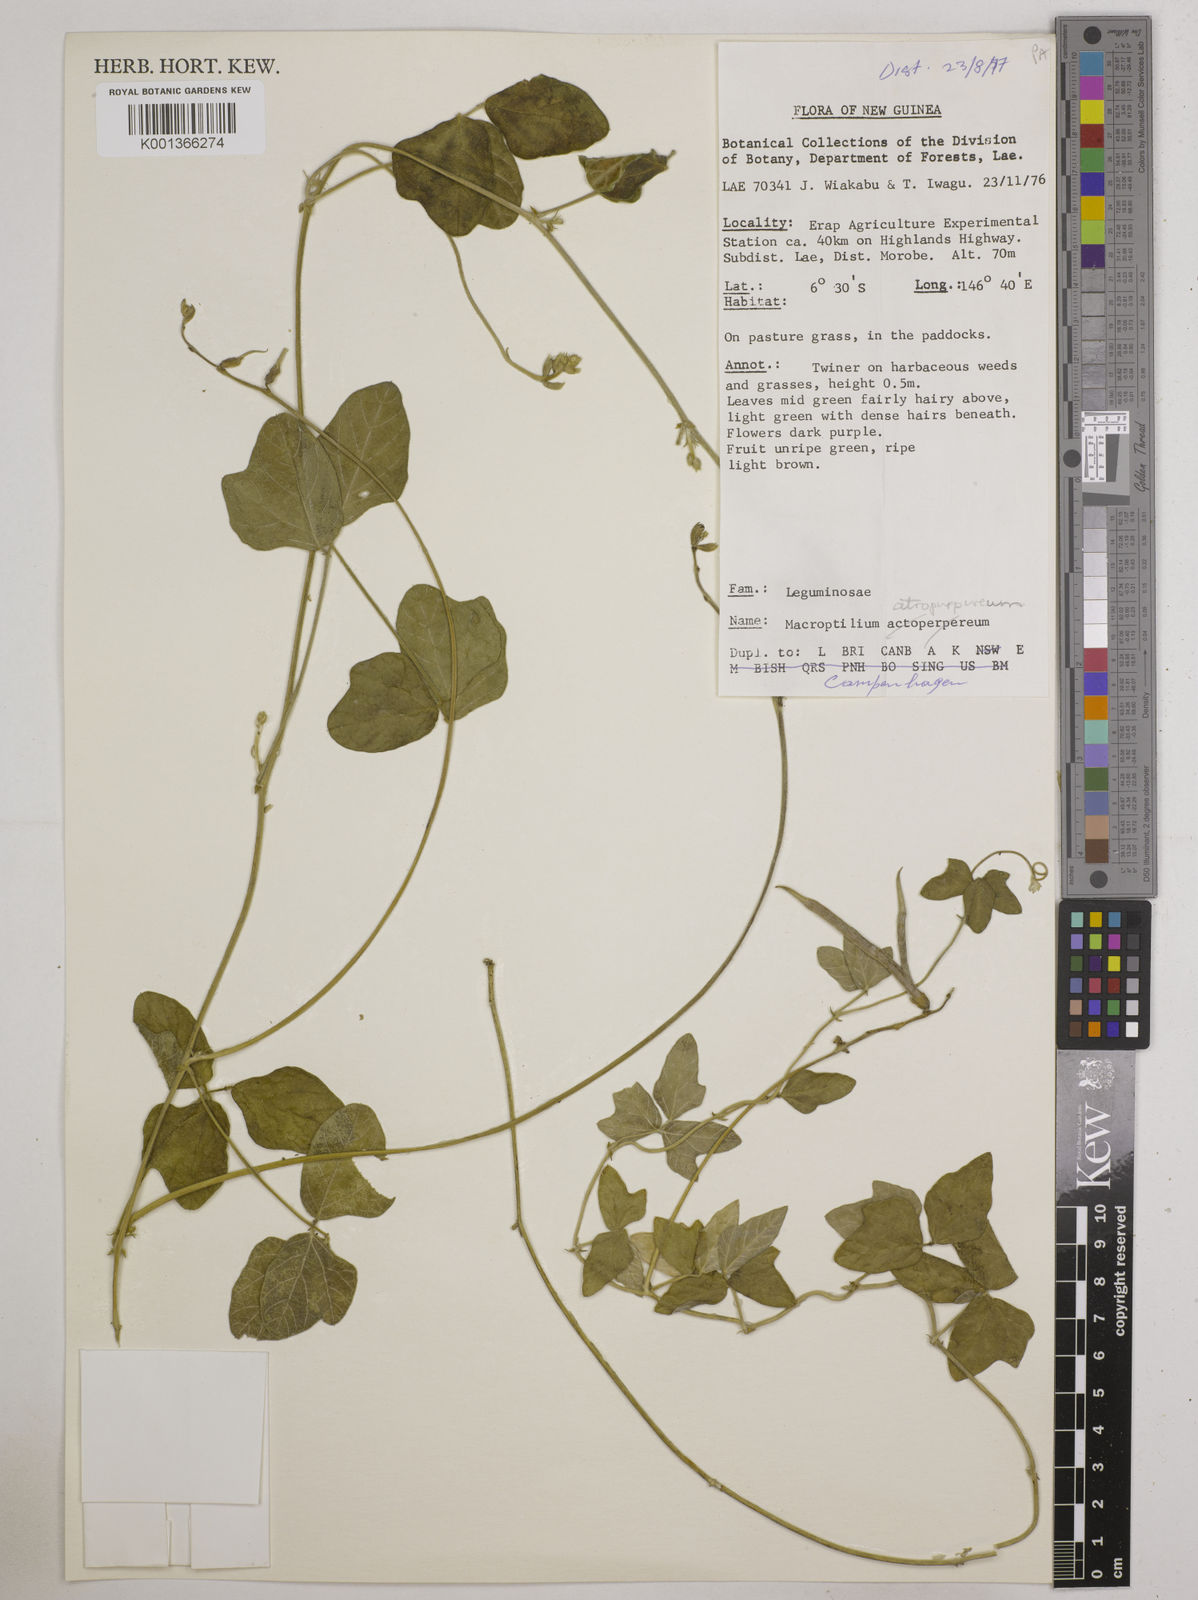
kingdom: Plantae
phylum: Tracheophyta
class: Magnoliopsida
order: Fabales
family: Fabaceae
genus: Macroptilium
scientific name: Macroptilium atropurpureum
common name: Purple bushbean
